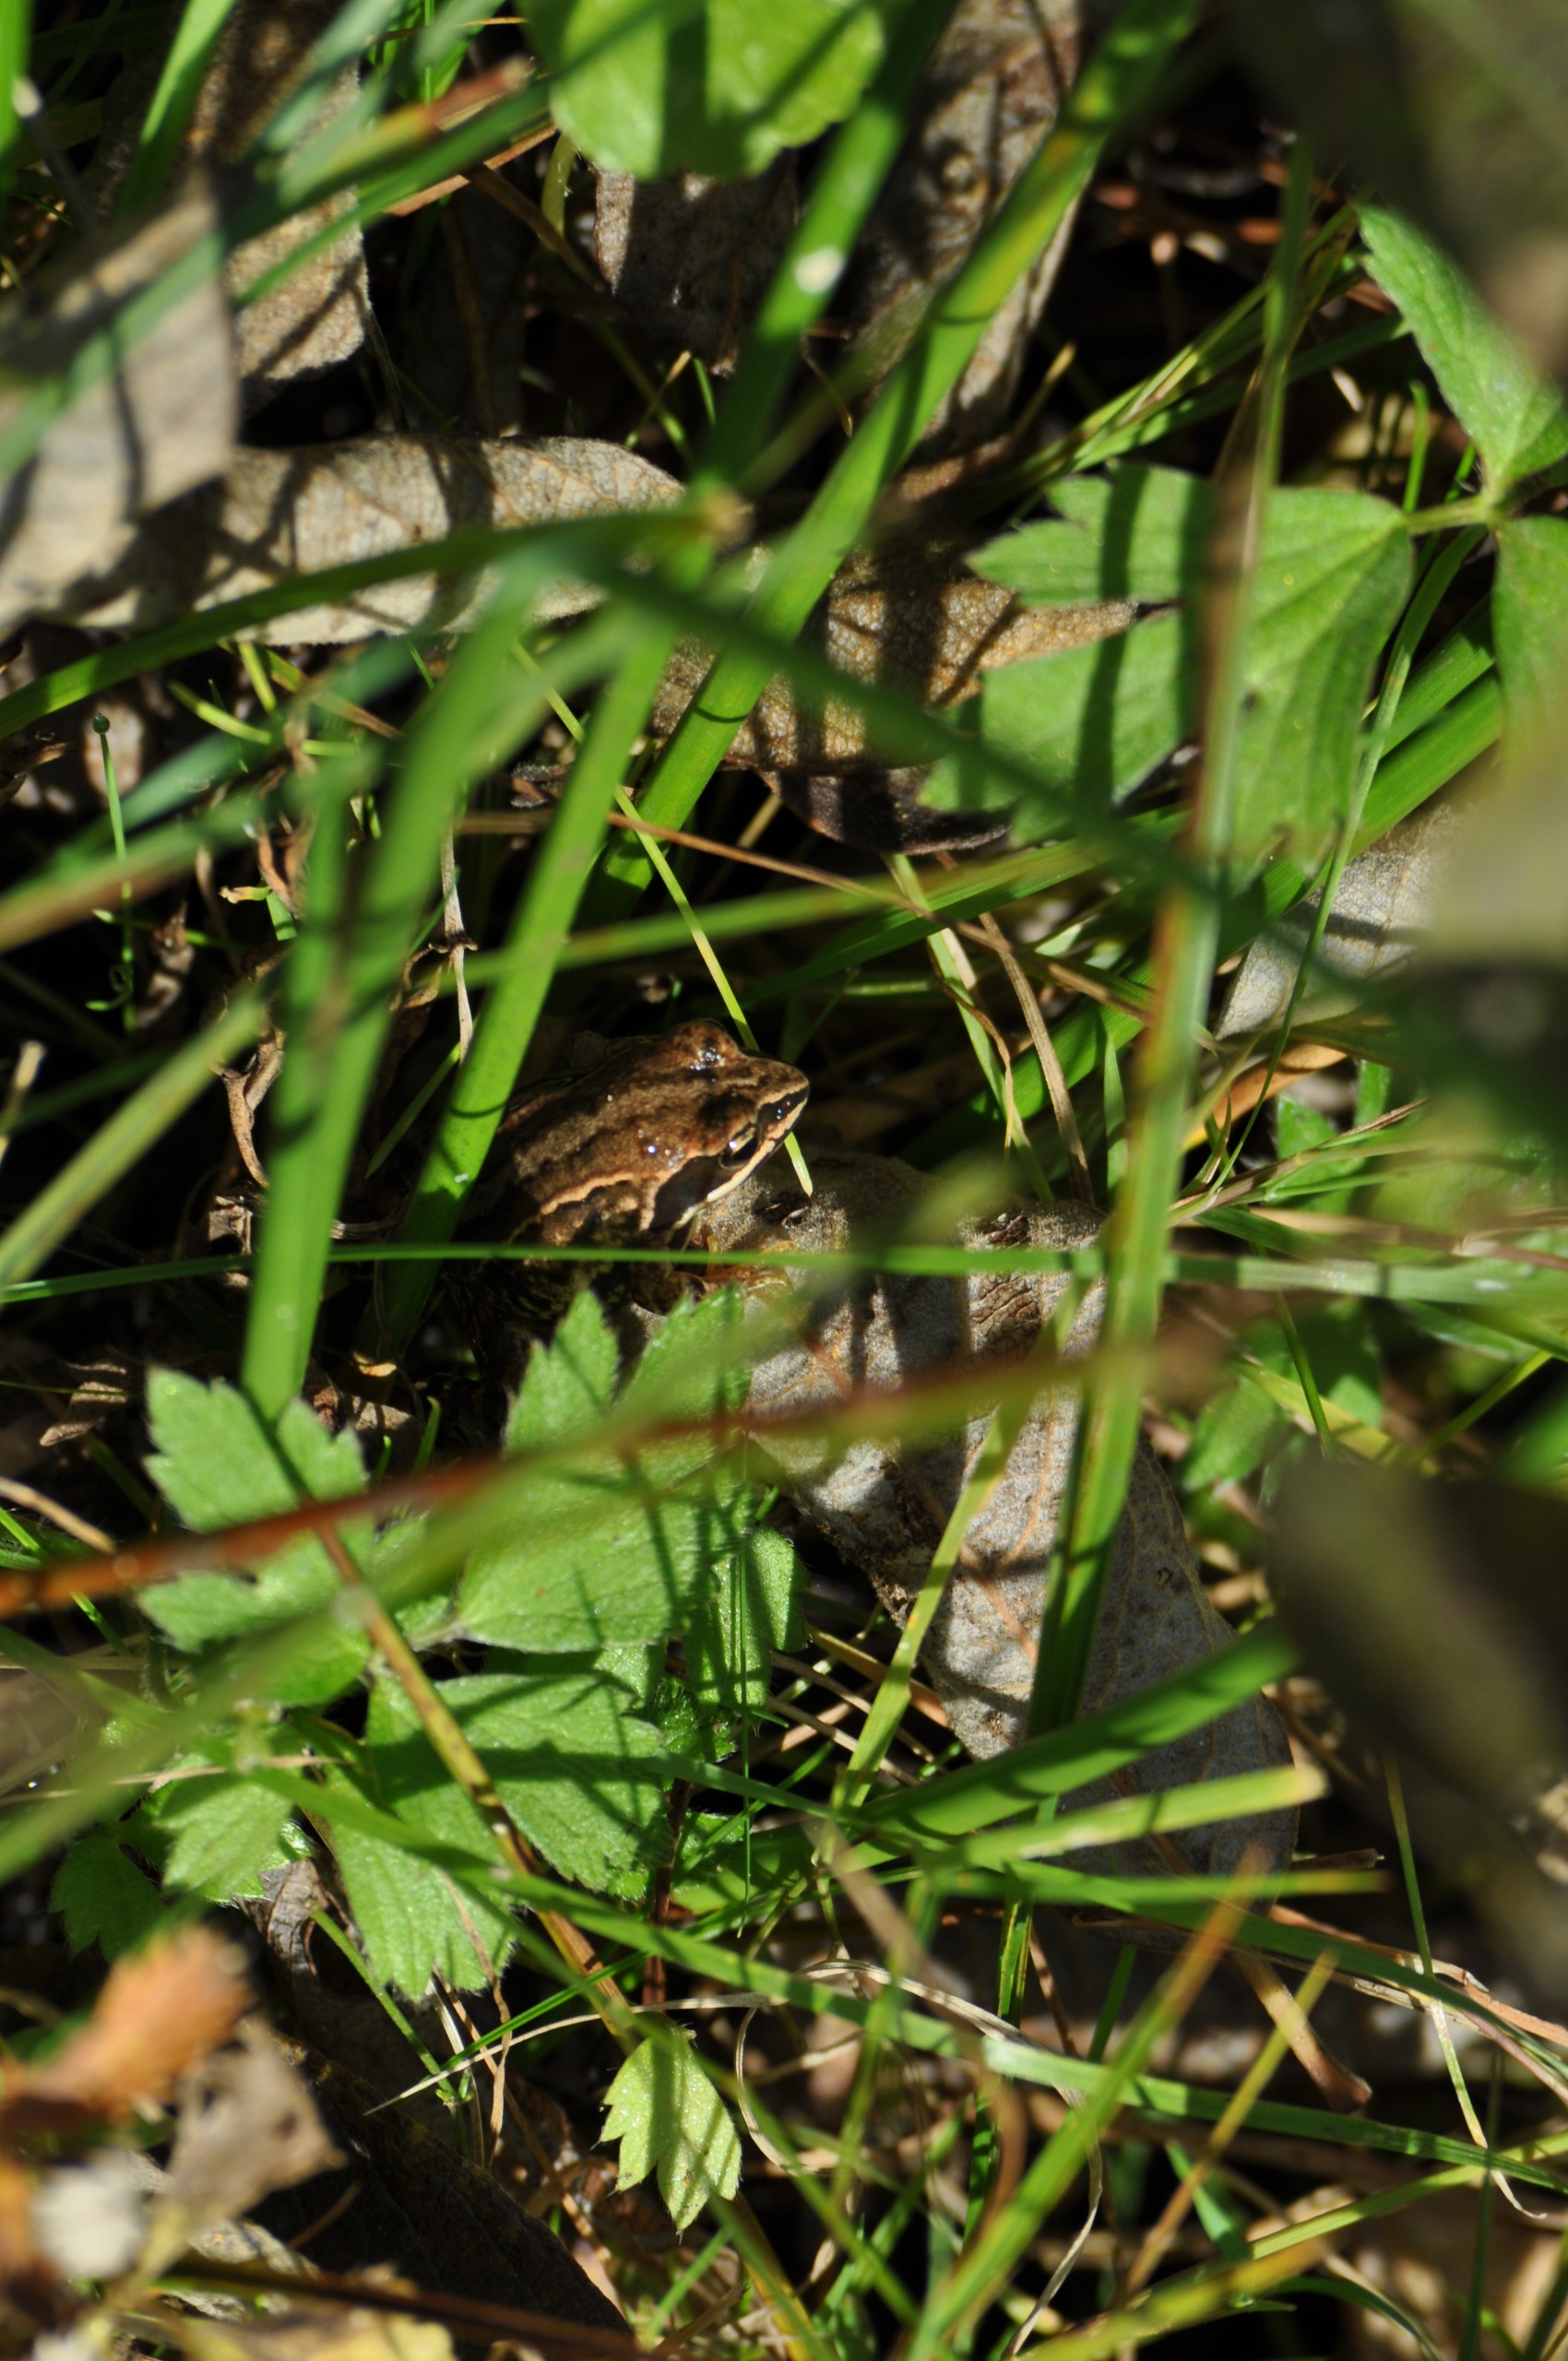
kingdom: Animalia
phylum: Chordata
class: Amphibia
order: Anura
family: Ranidae
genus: Rana
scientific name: Rana arvalis
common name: Spidssnudet frø
